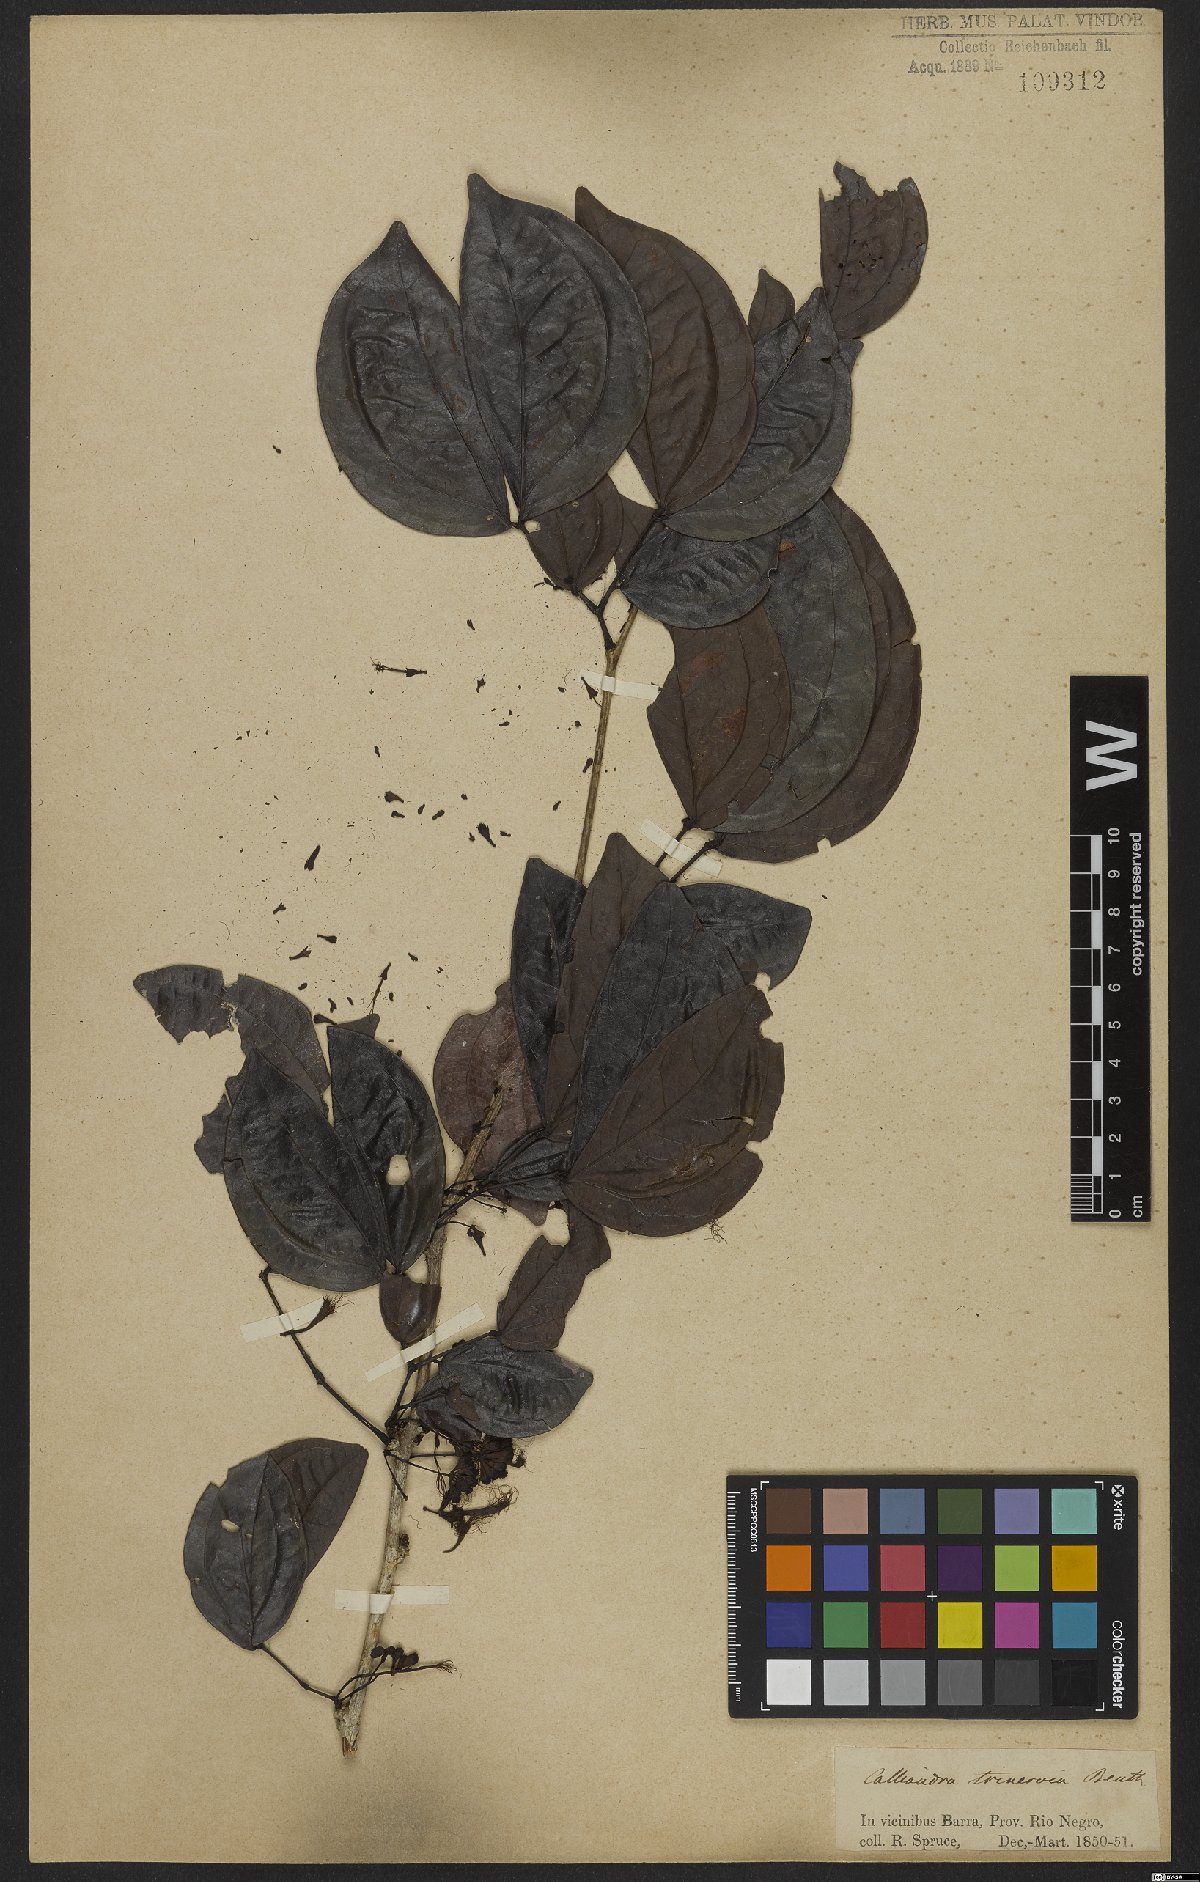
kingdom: Plantae
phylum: Tracheophyta
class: Magnoliopsida
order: Fabales
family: Fabaceae
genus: Calliandra
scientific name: Calliandra trinervia
